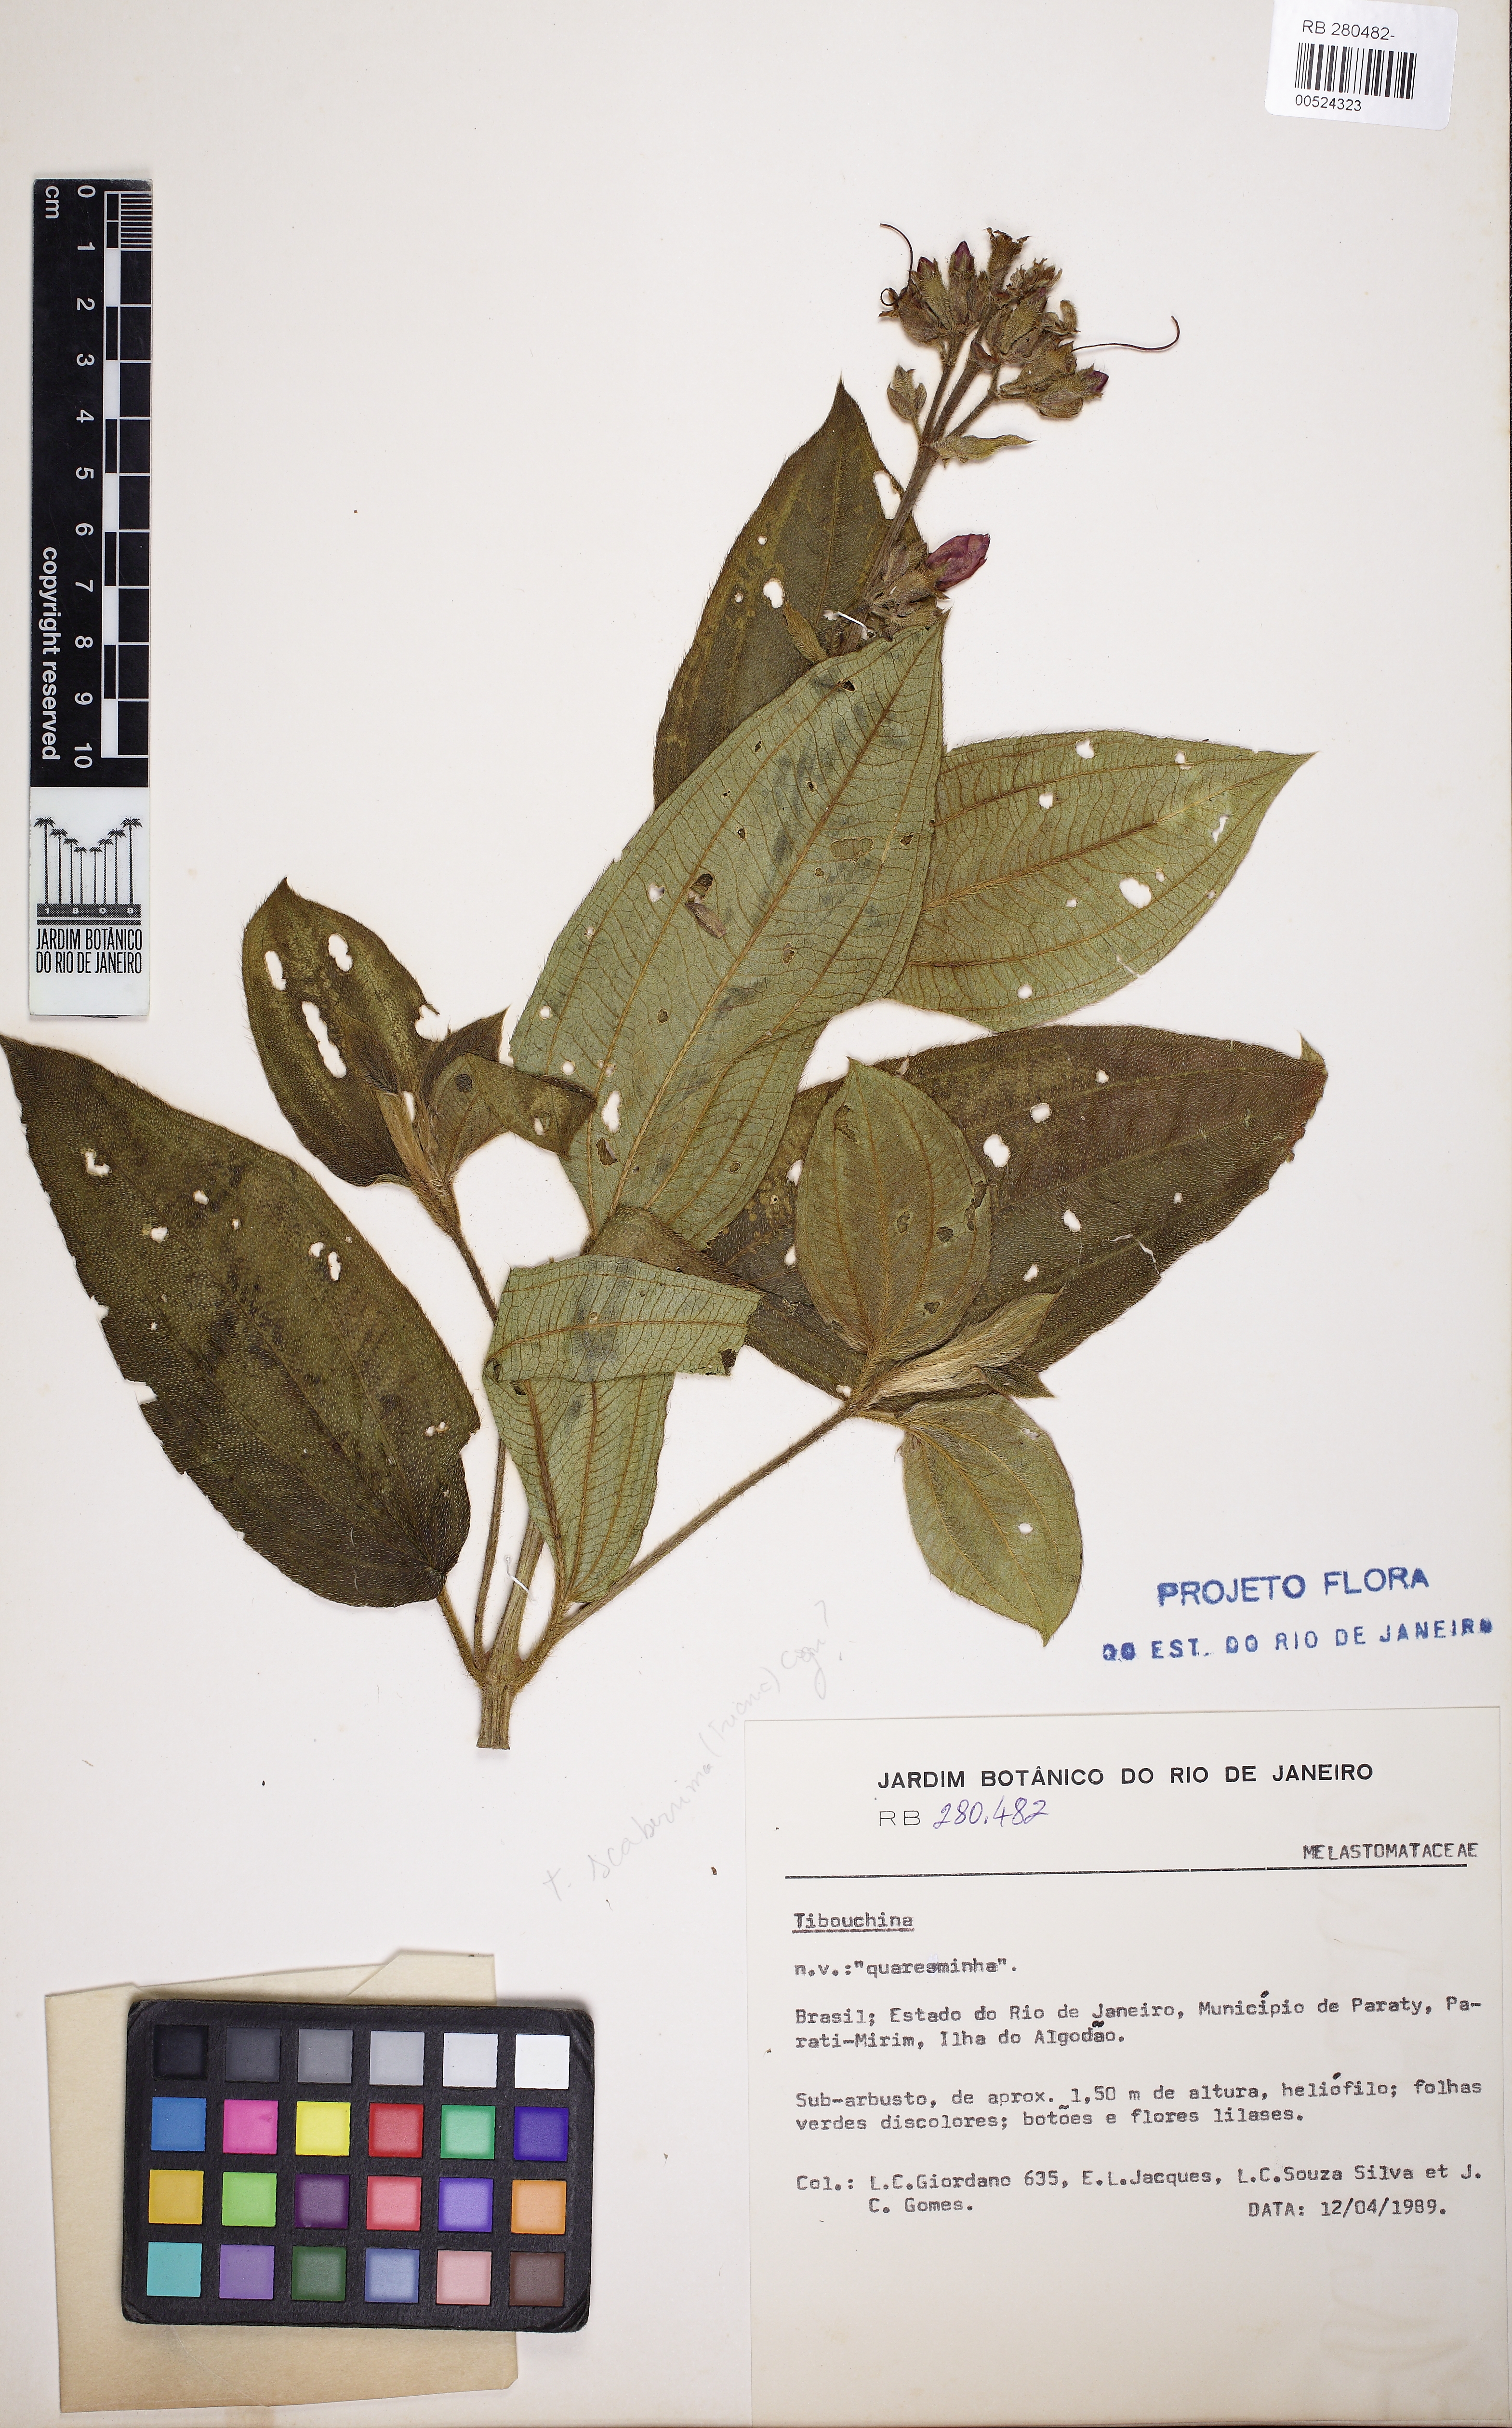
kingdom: Plantae
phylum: Tracheophyta
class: Magnoliopsida
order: Myrtales
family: Melastomataceae
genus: Tibouchina
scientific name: Tibouchina
